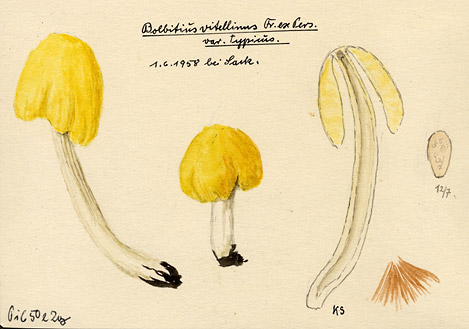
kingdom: Fungi
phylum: Basidiomycota
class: Agaricomycetes
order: Agaricales
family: Bolbitiaceae
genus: Bolbitius
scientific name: Bolbitius titubans
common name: Yellow fieldcap
